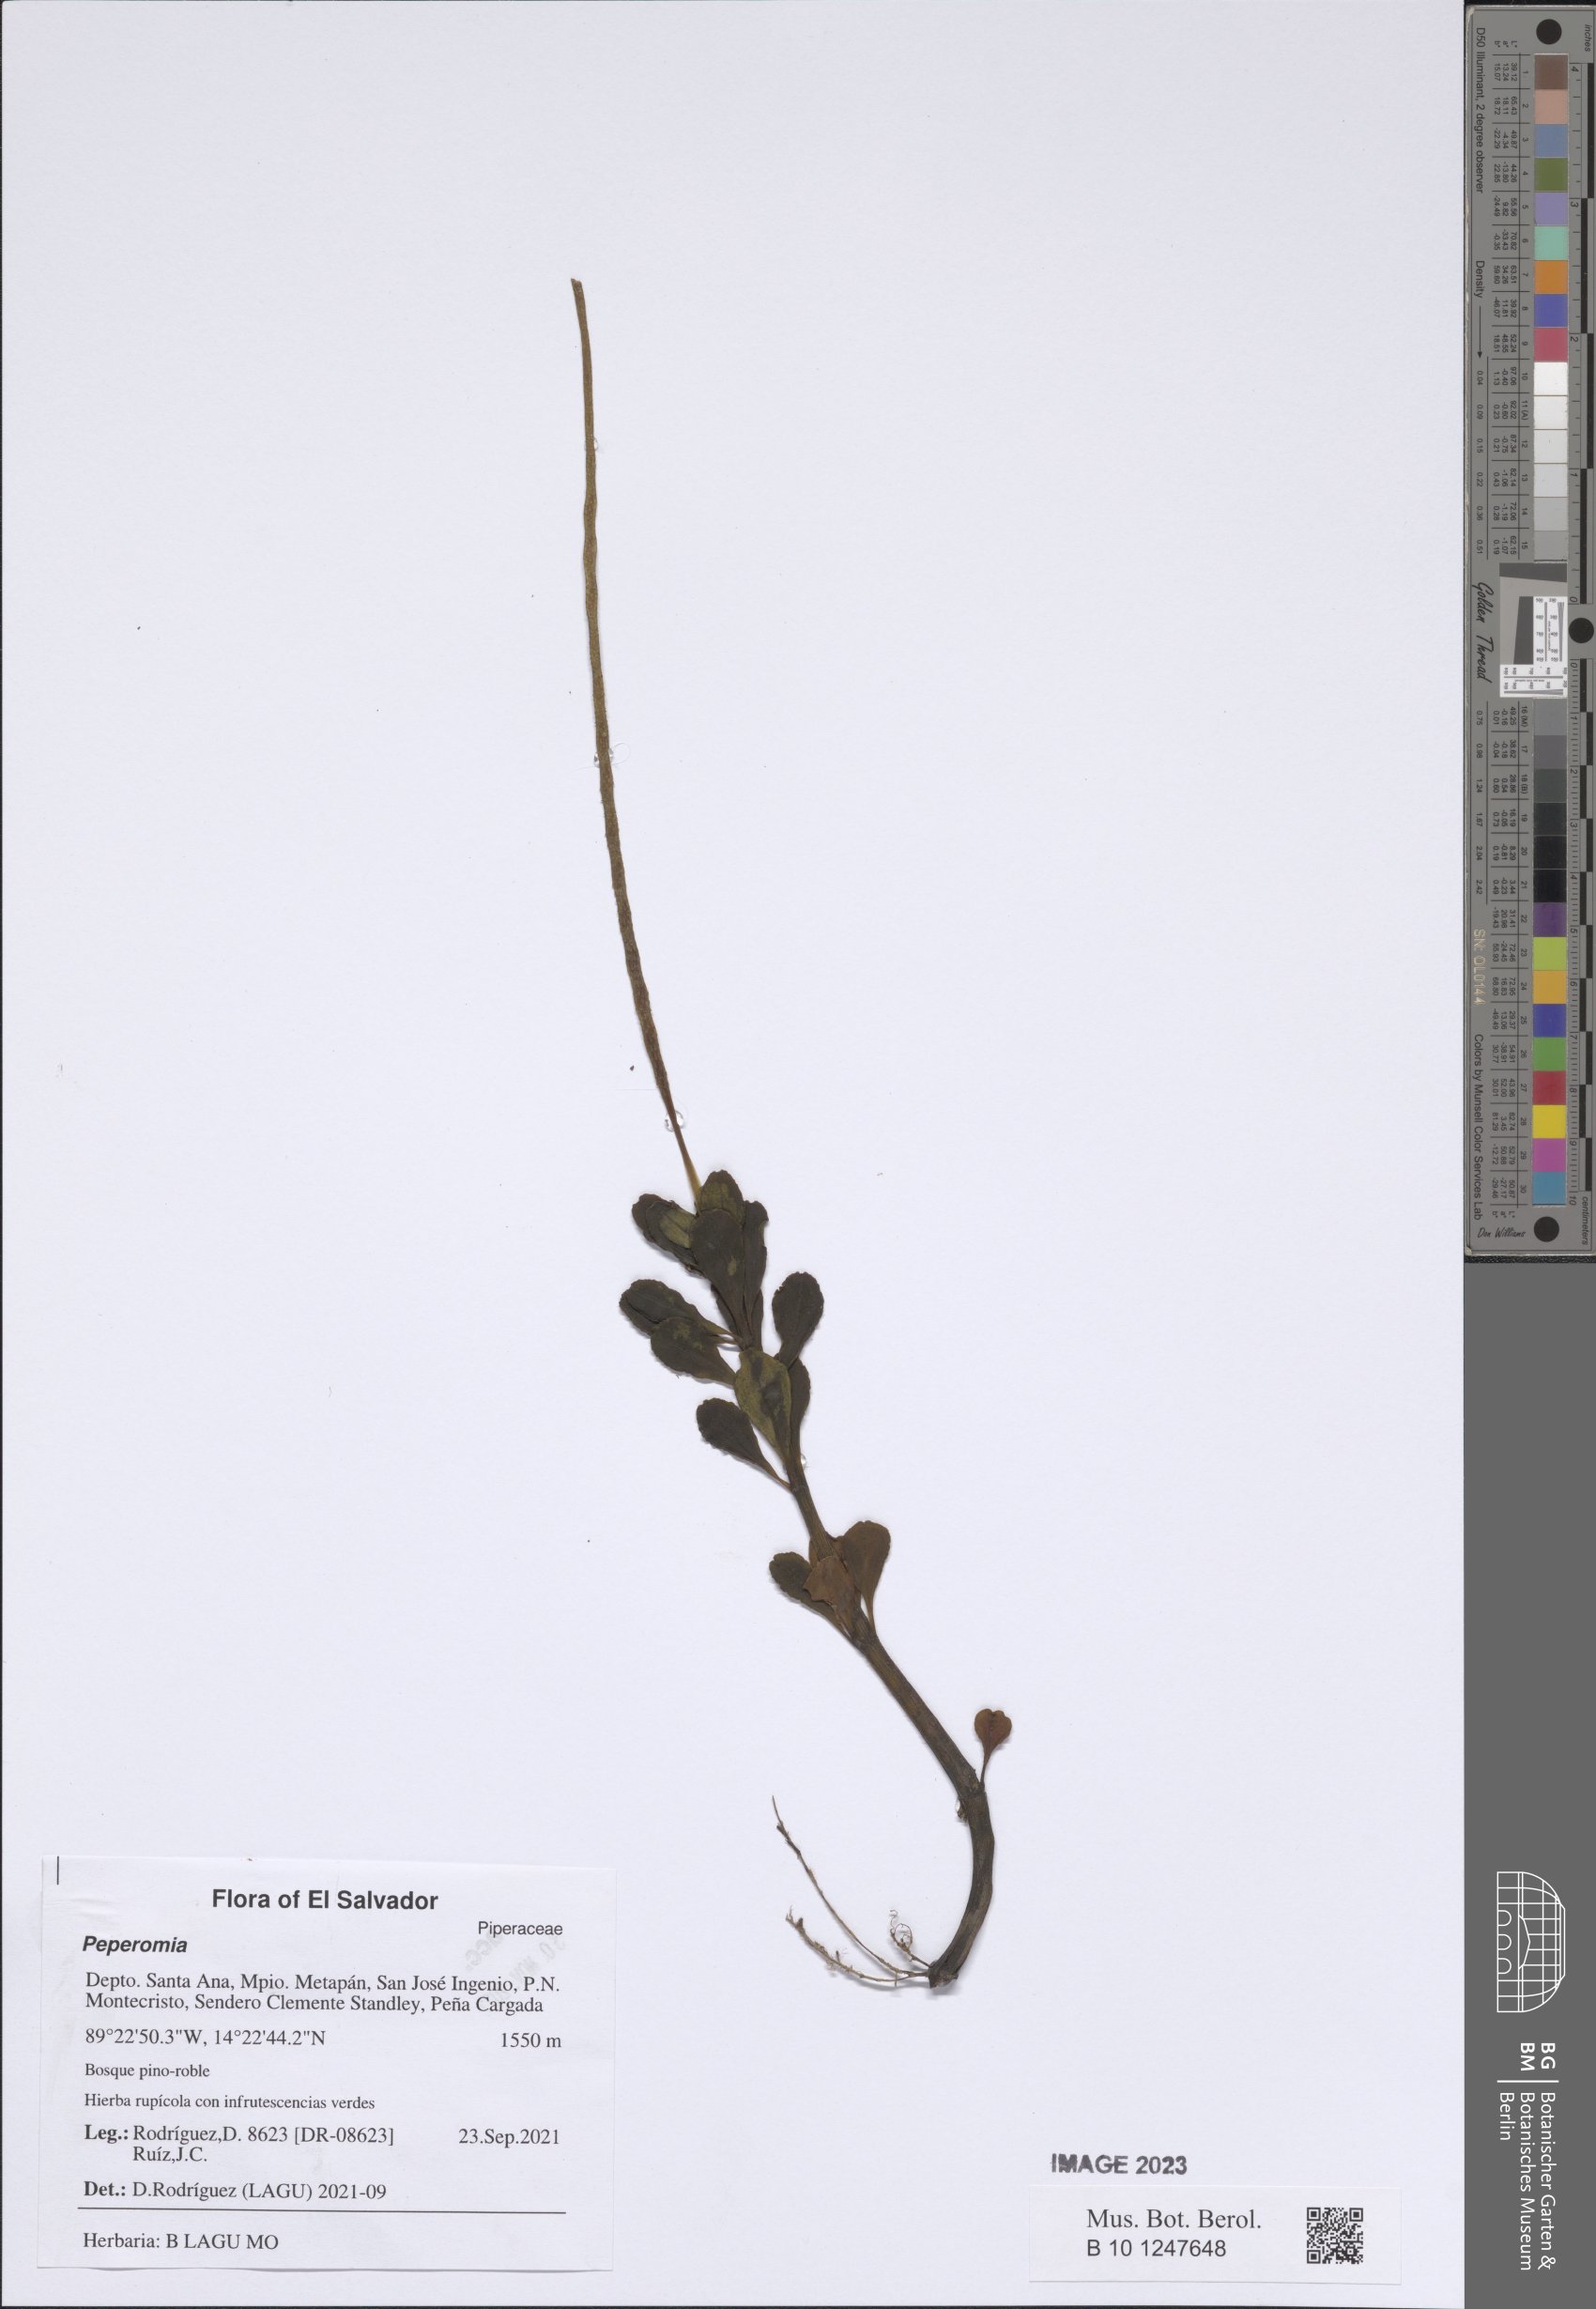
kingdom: Plantae
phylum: Tracheophyta
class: Magnoliopsida
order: Piperales
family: Piperaceae
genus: Peperomia
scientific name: Peperomia
